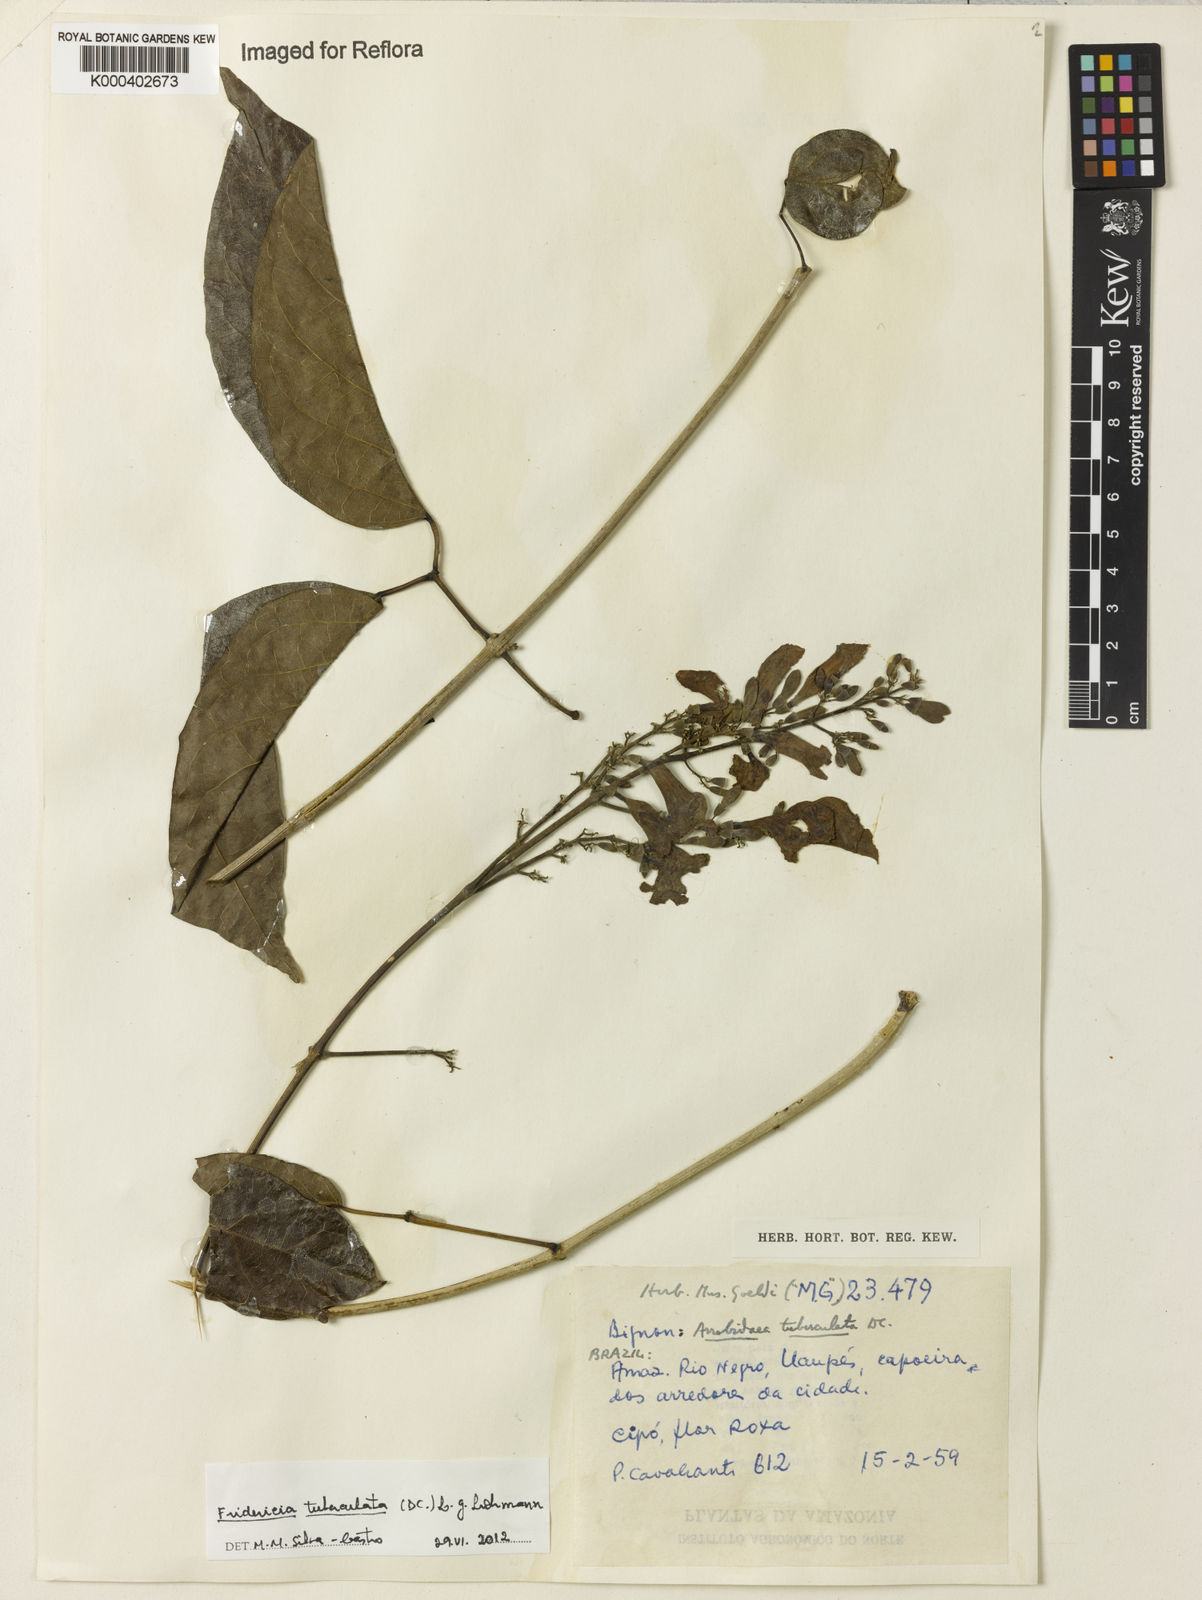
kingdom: Plantae
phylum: Tracheophyta
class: Magnoliopsida
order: Lamiales
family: Bignoniaceae
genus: Fridericia
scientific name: Fridericia tuberculata
